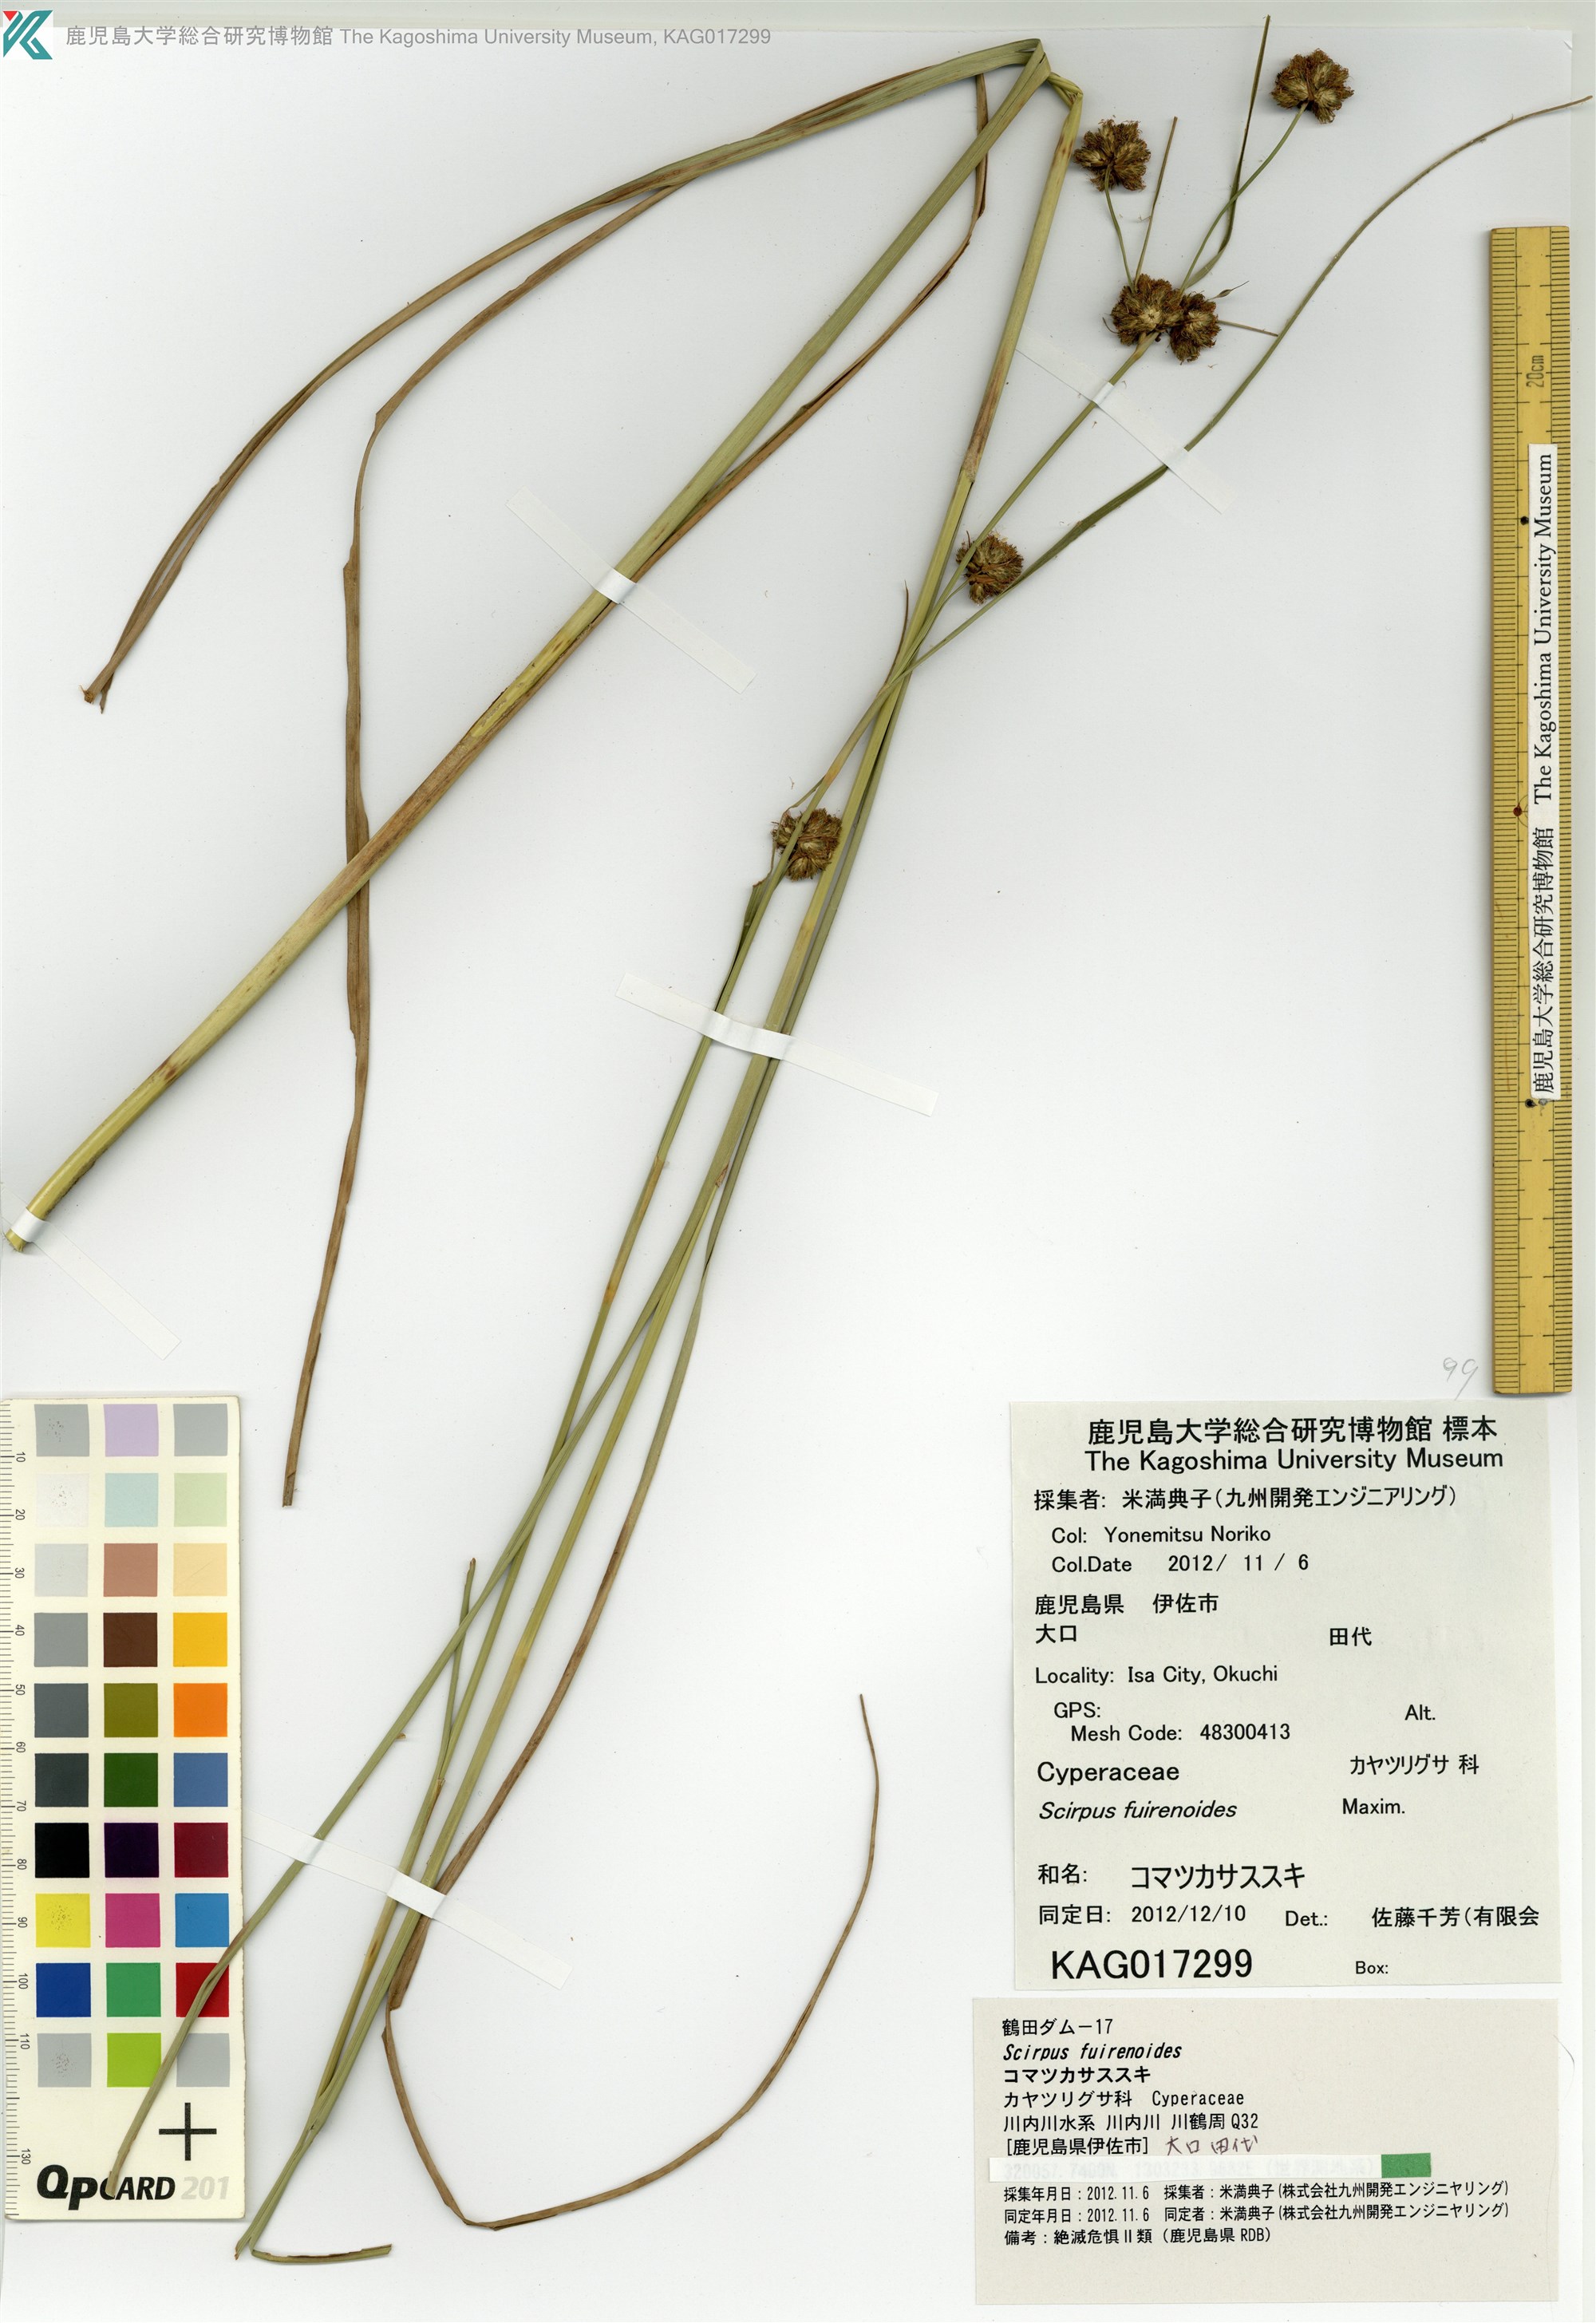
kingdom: Plantae
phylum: Tracheophyta
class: Liliopsida
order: Poales
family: Cyperaceae
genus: Scirpus
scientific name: Scirpus fuirenoides
